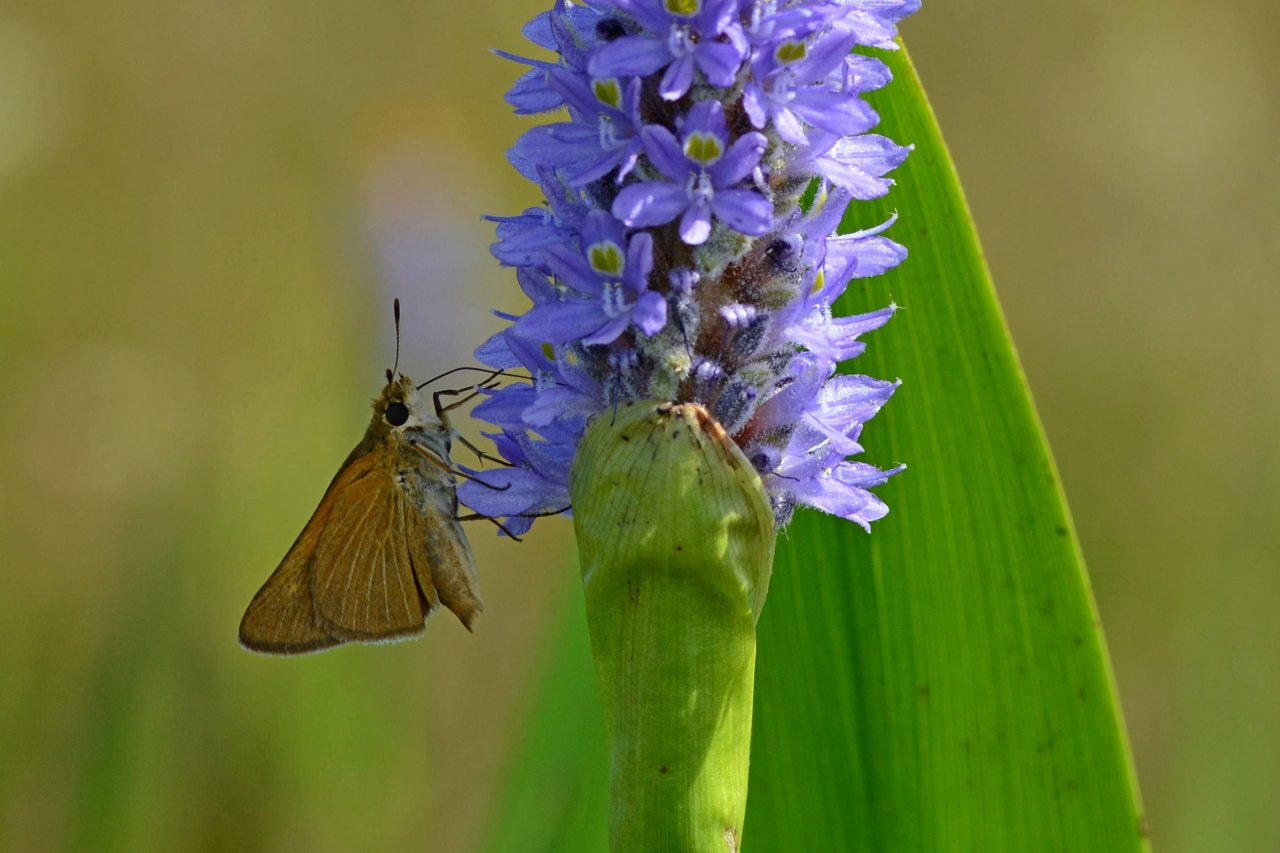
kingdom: Animalia
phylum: Arthropoda
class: Insecta
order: Lepidoptera
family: Hesperiidae
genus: Euphyes
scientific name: Euphyes berryi
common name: Berry's Skipper
